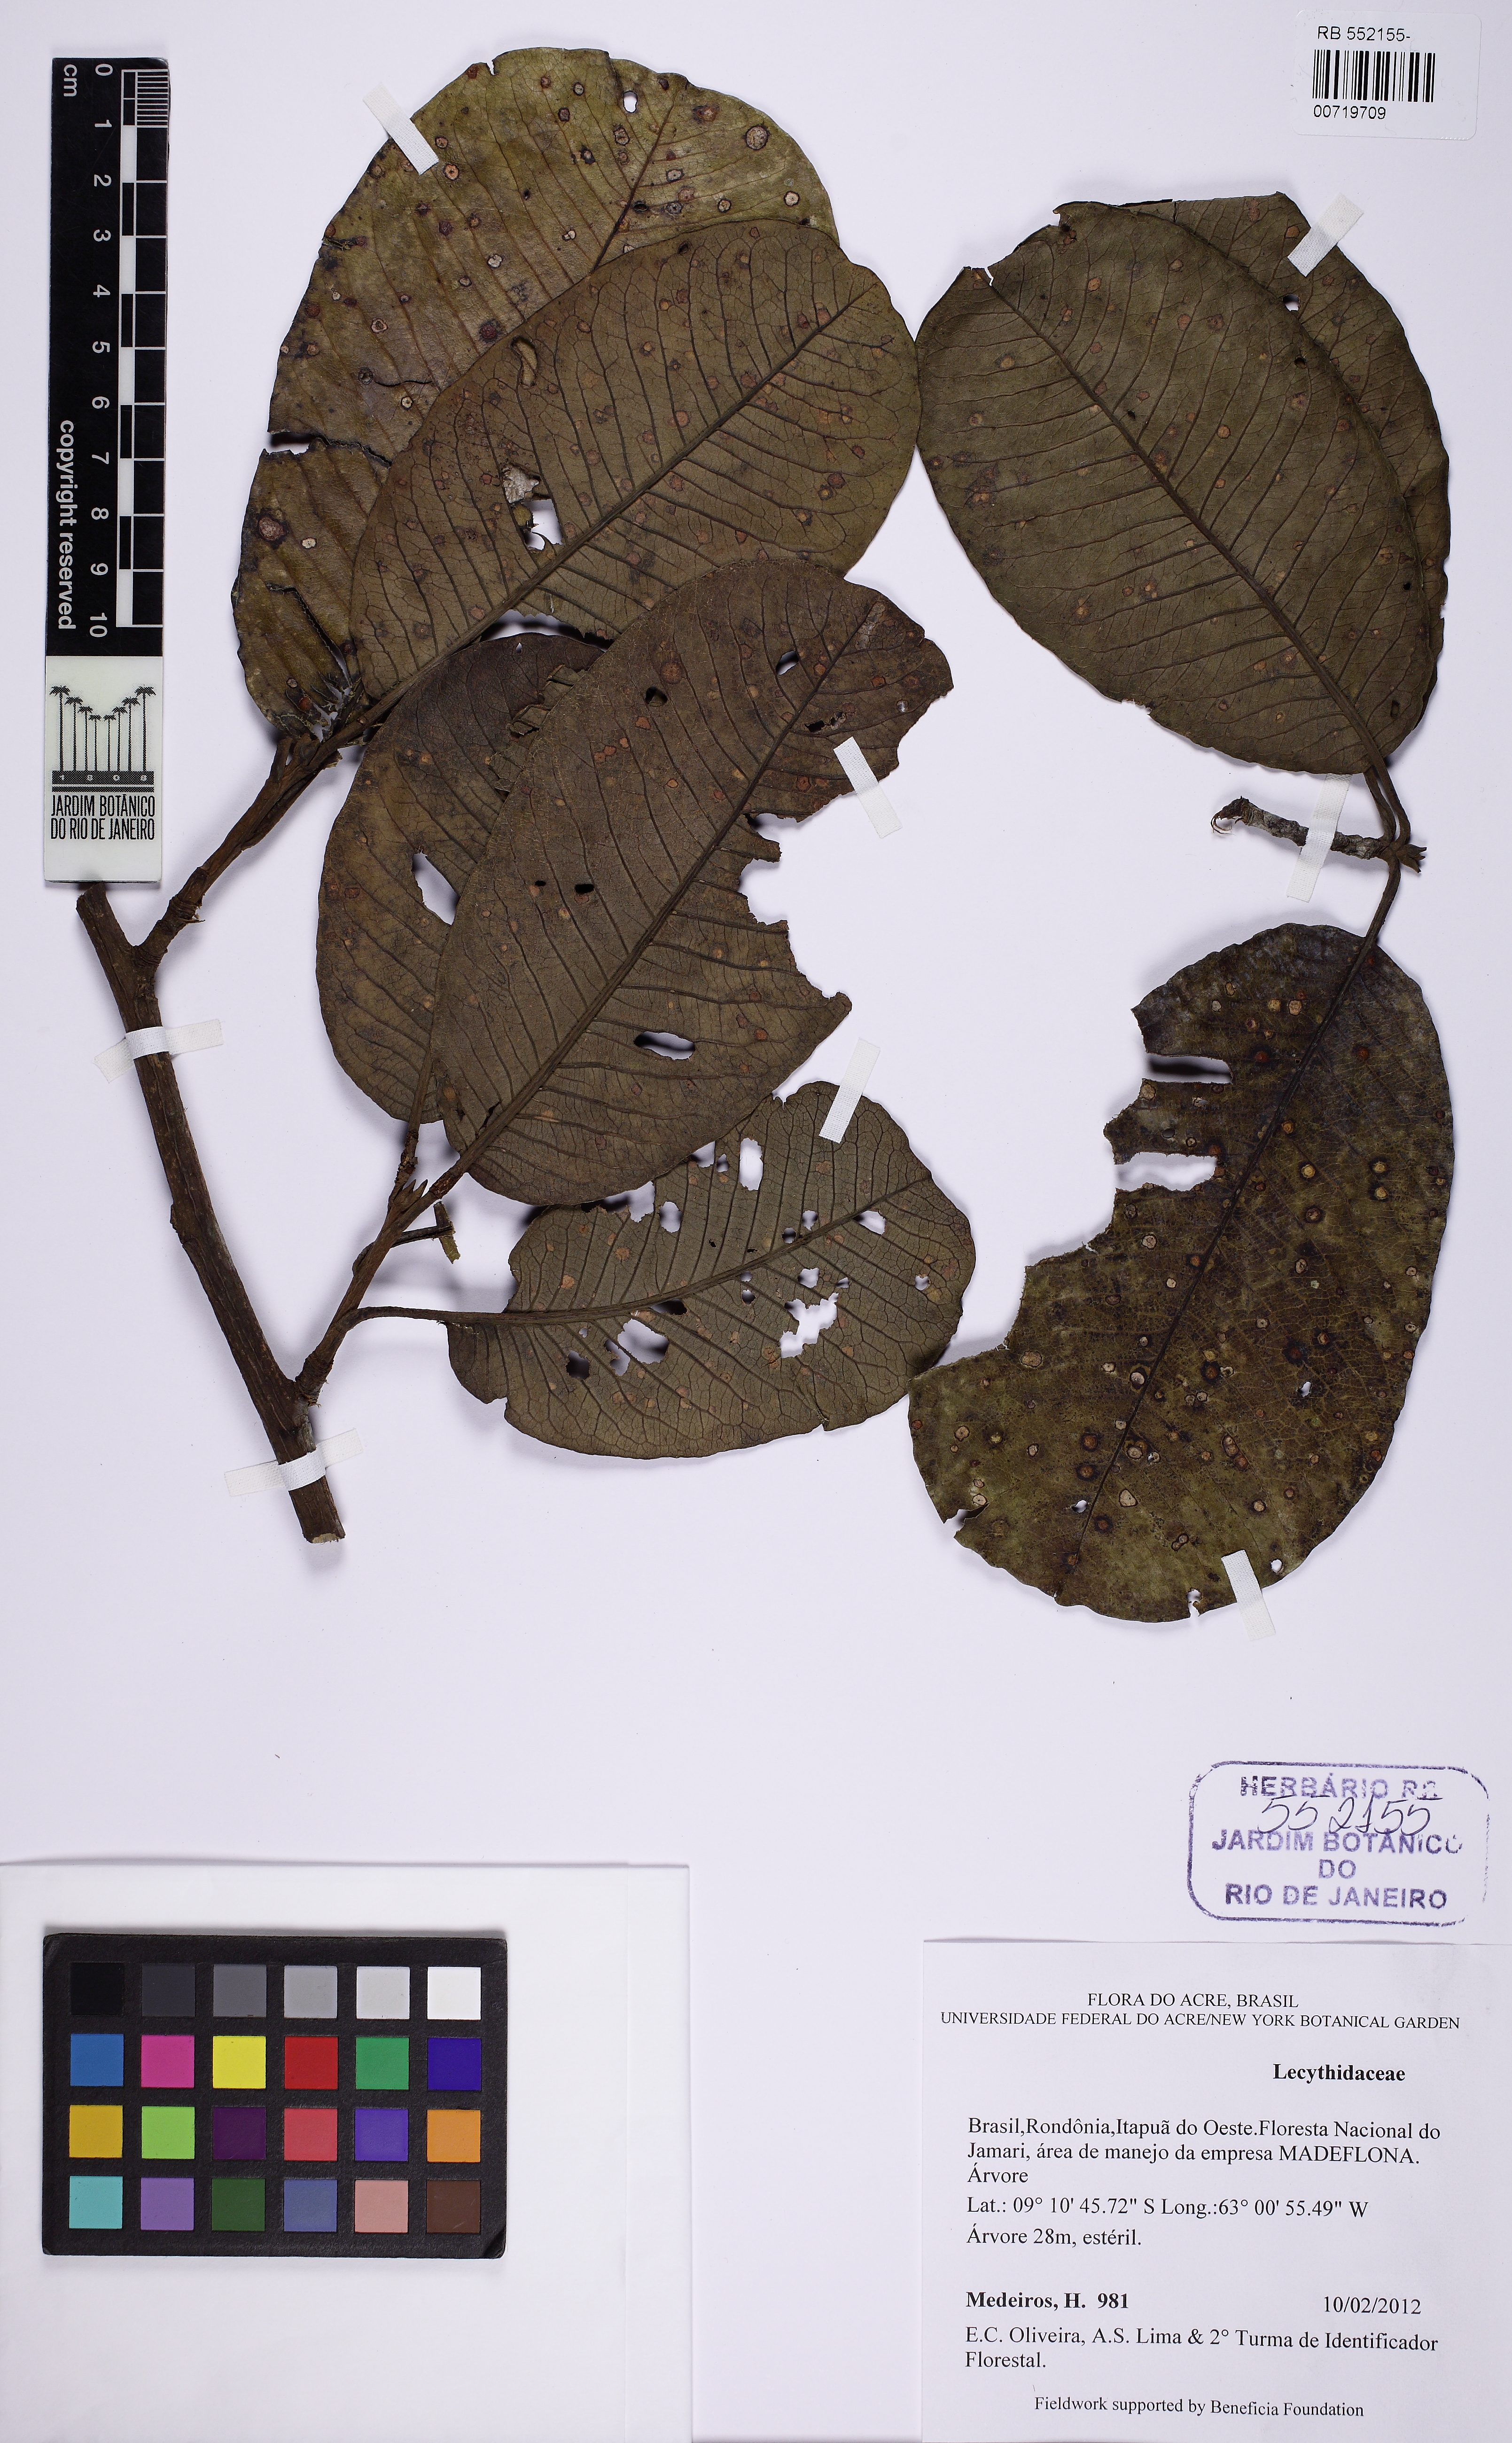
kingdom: Plantae
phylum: Tracheophyta
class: Magnoliopsida
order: Ericales
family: Lecythidaceae
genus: Couratari
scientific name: Couratari guianensis
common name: Fine-leaf wadara
